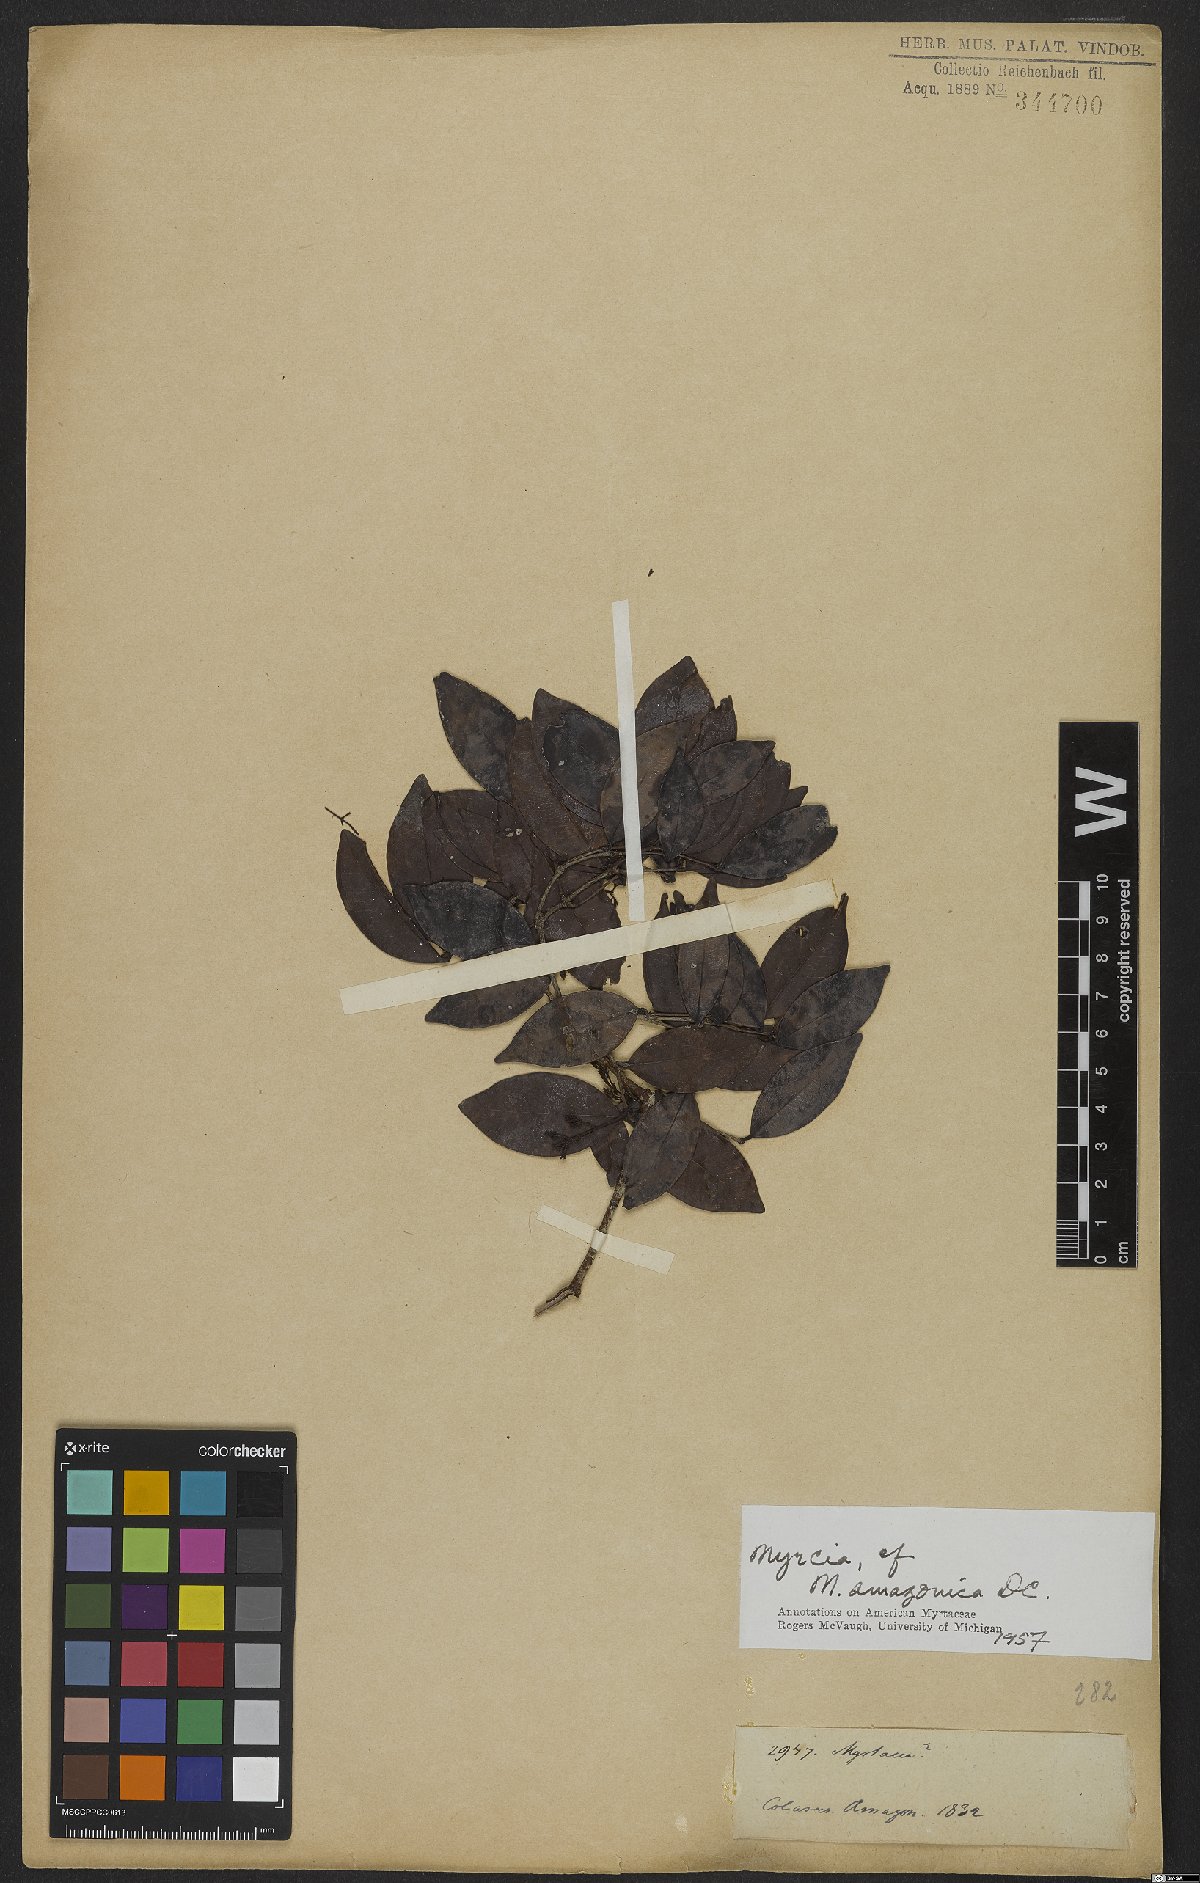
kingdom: Plantae
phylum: Tracheophyta
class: Magnoliopsida
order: Myrtales
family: Myrtaceae
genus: Myrcia
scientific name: Myrcia amazonica
